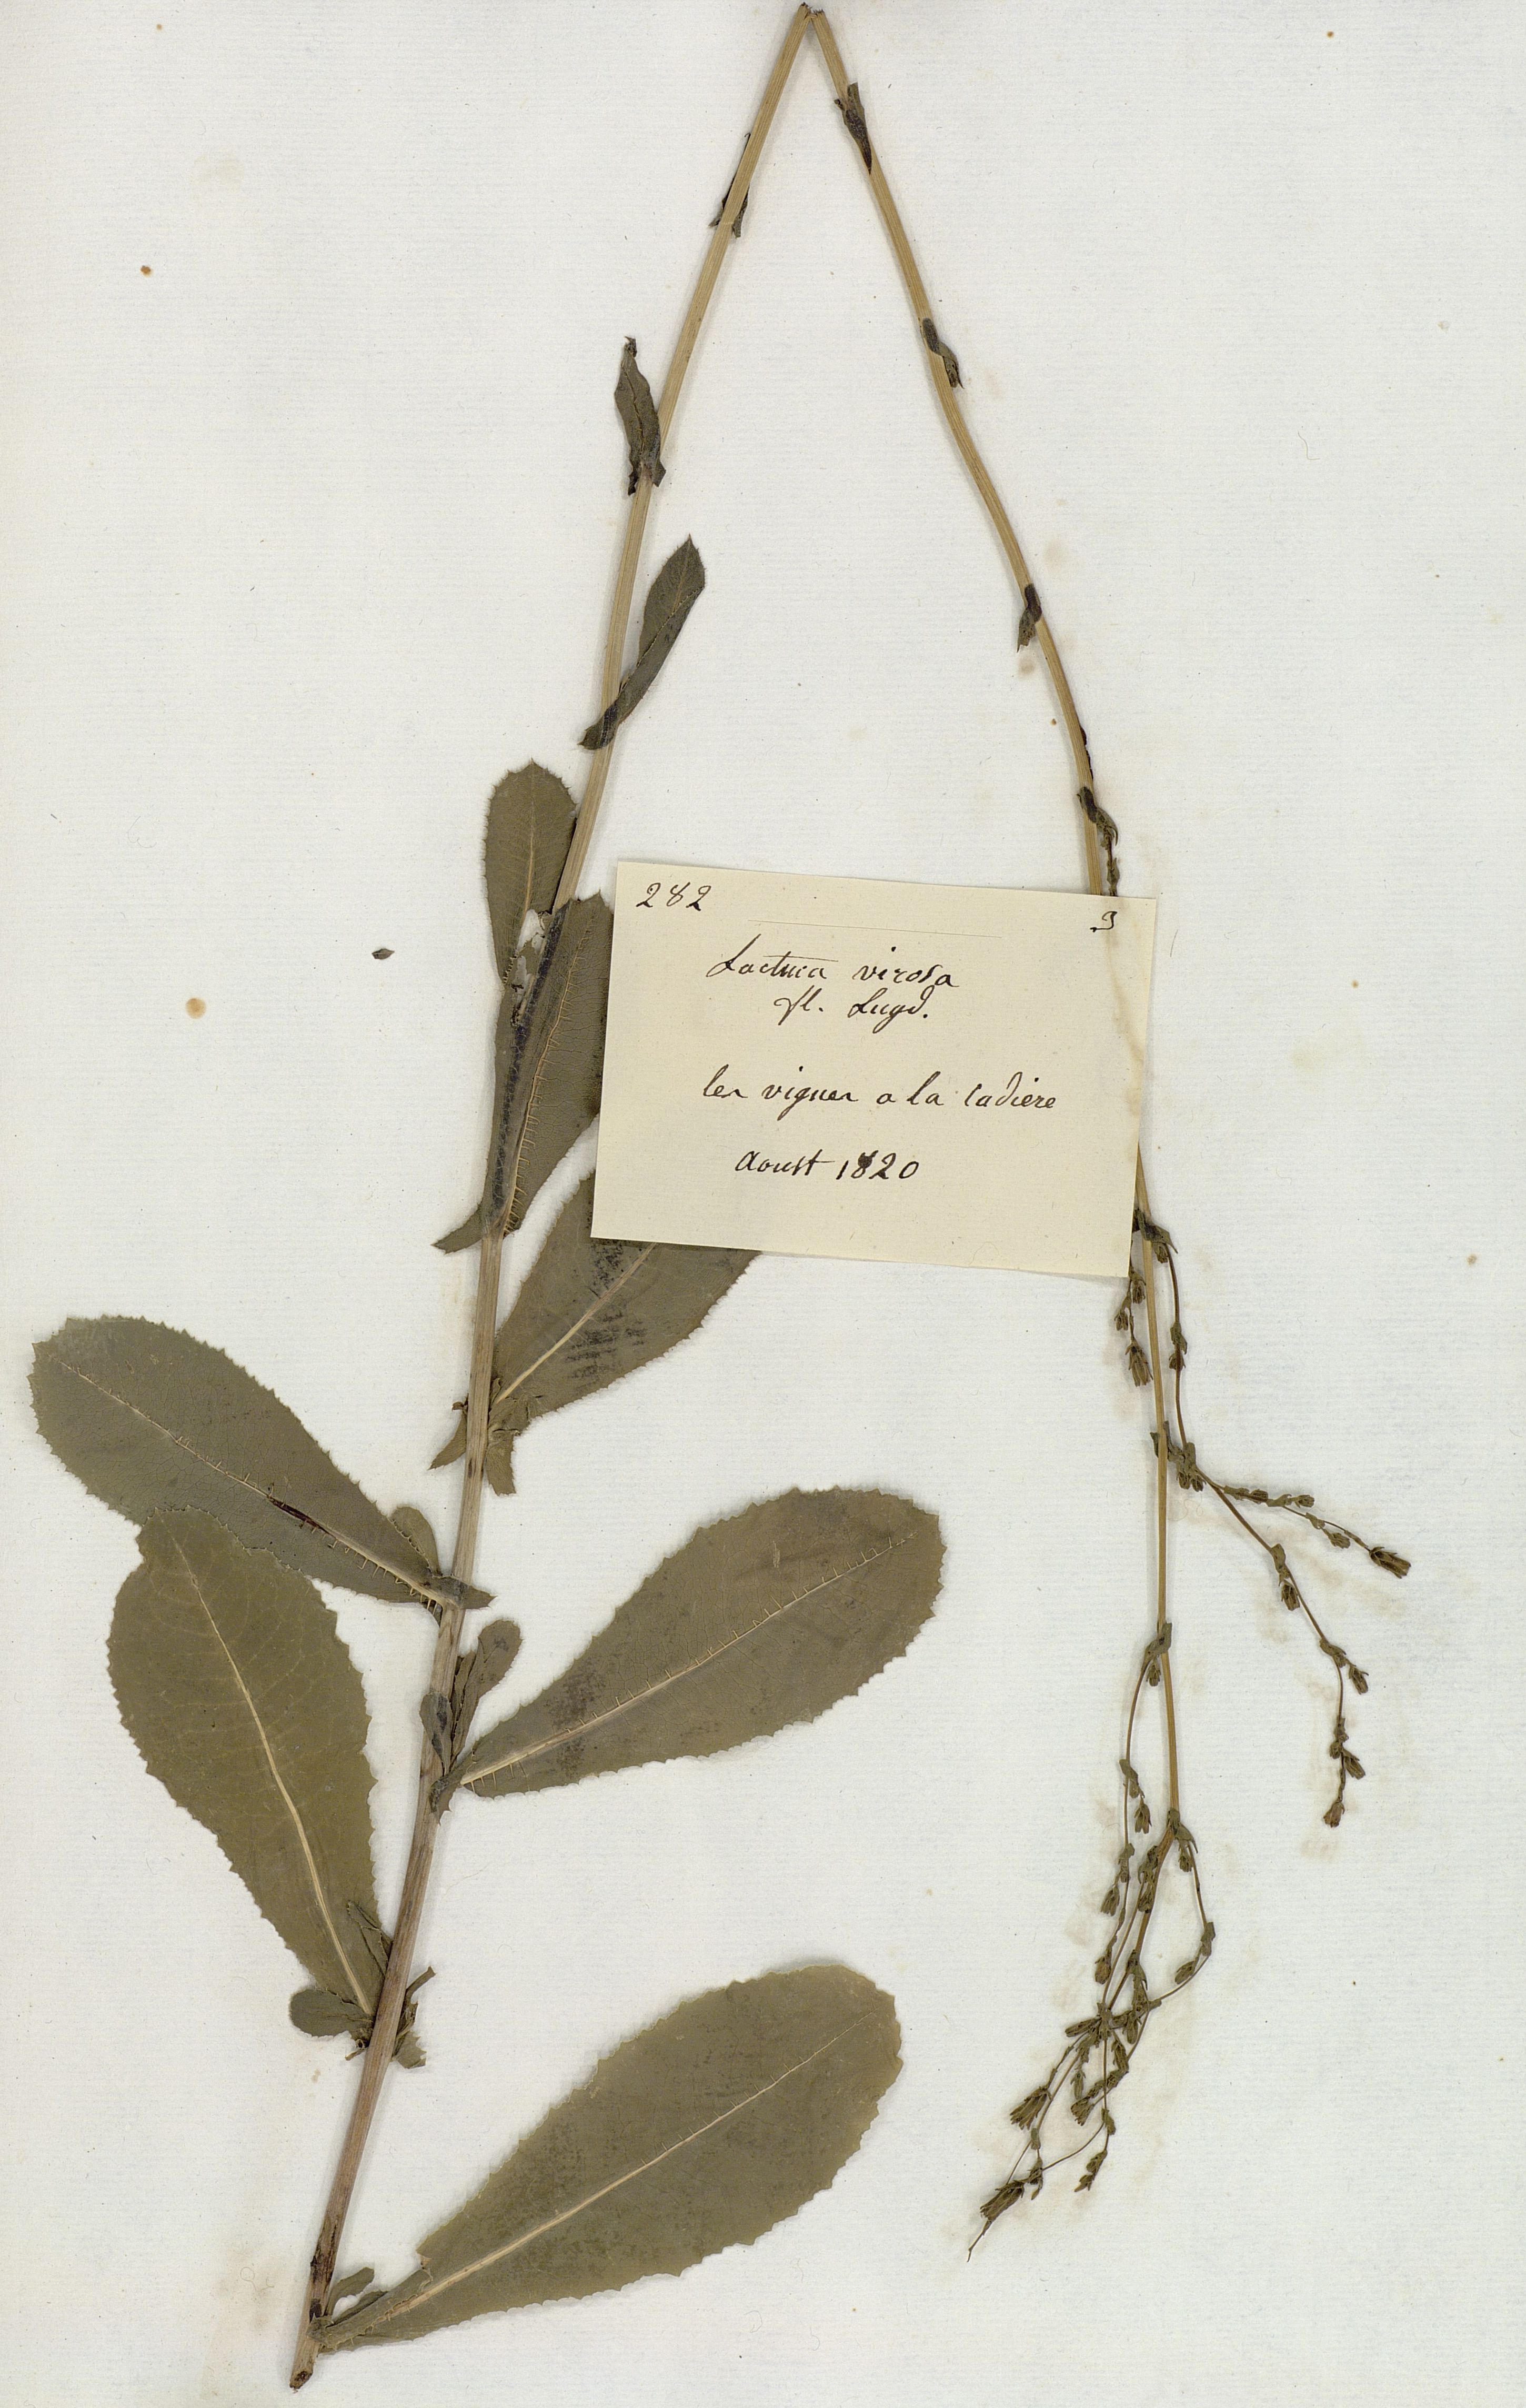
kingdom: Plantae
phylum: Tracheophyta
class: Magnoliopsida
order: Asterales
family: Asteraceae
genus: Lactuca
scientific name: Lactuca virosa
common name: Great lettuce
